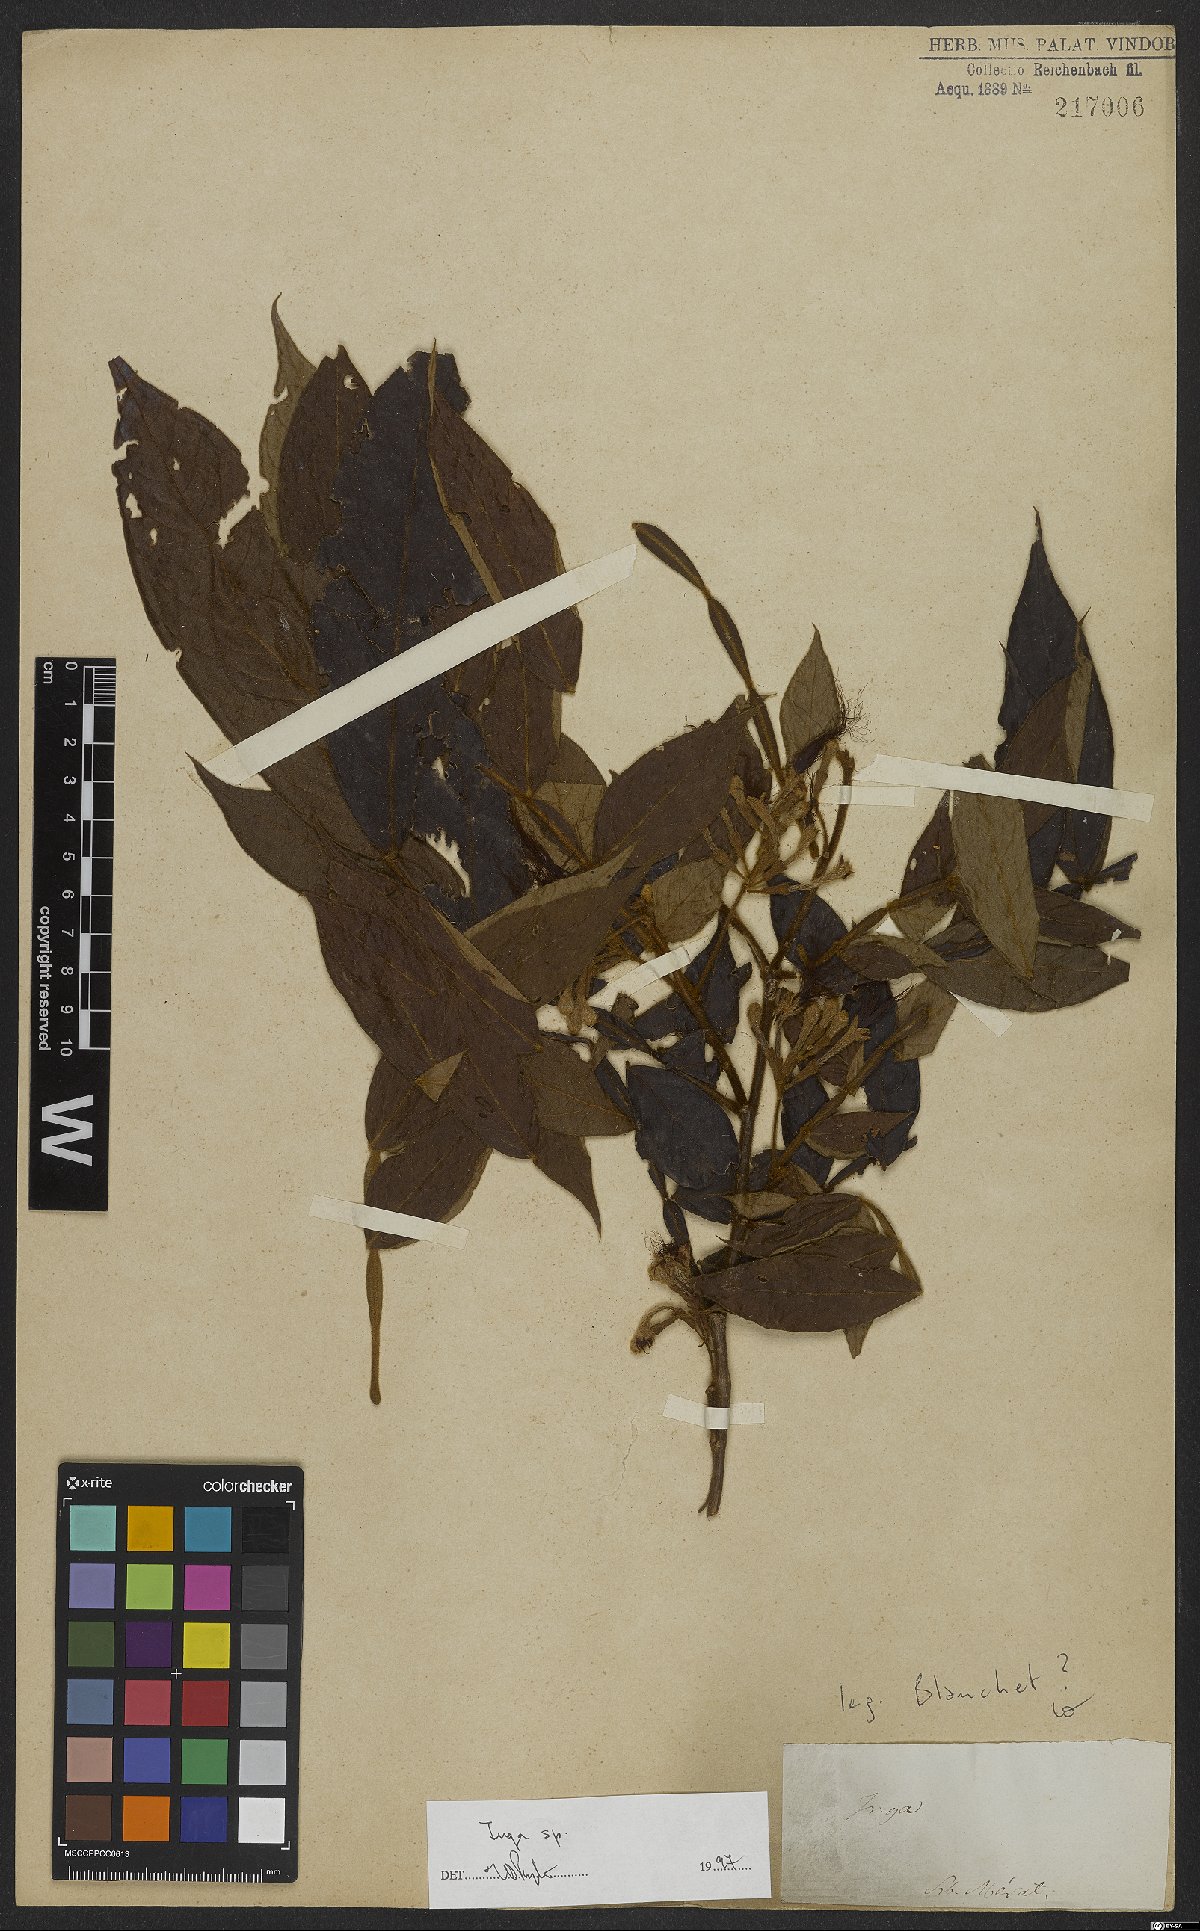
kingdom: Plantae
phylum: Tracheophyta
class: Magnoliopsida
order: Fabales
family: Fabaceae
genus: Inga
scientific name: Inga
